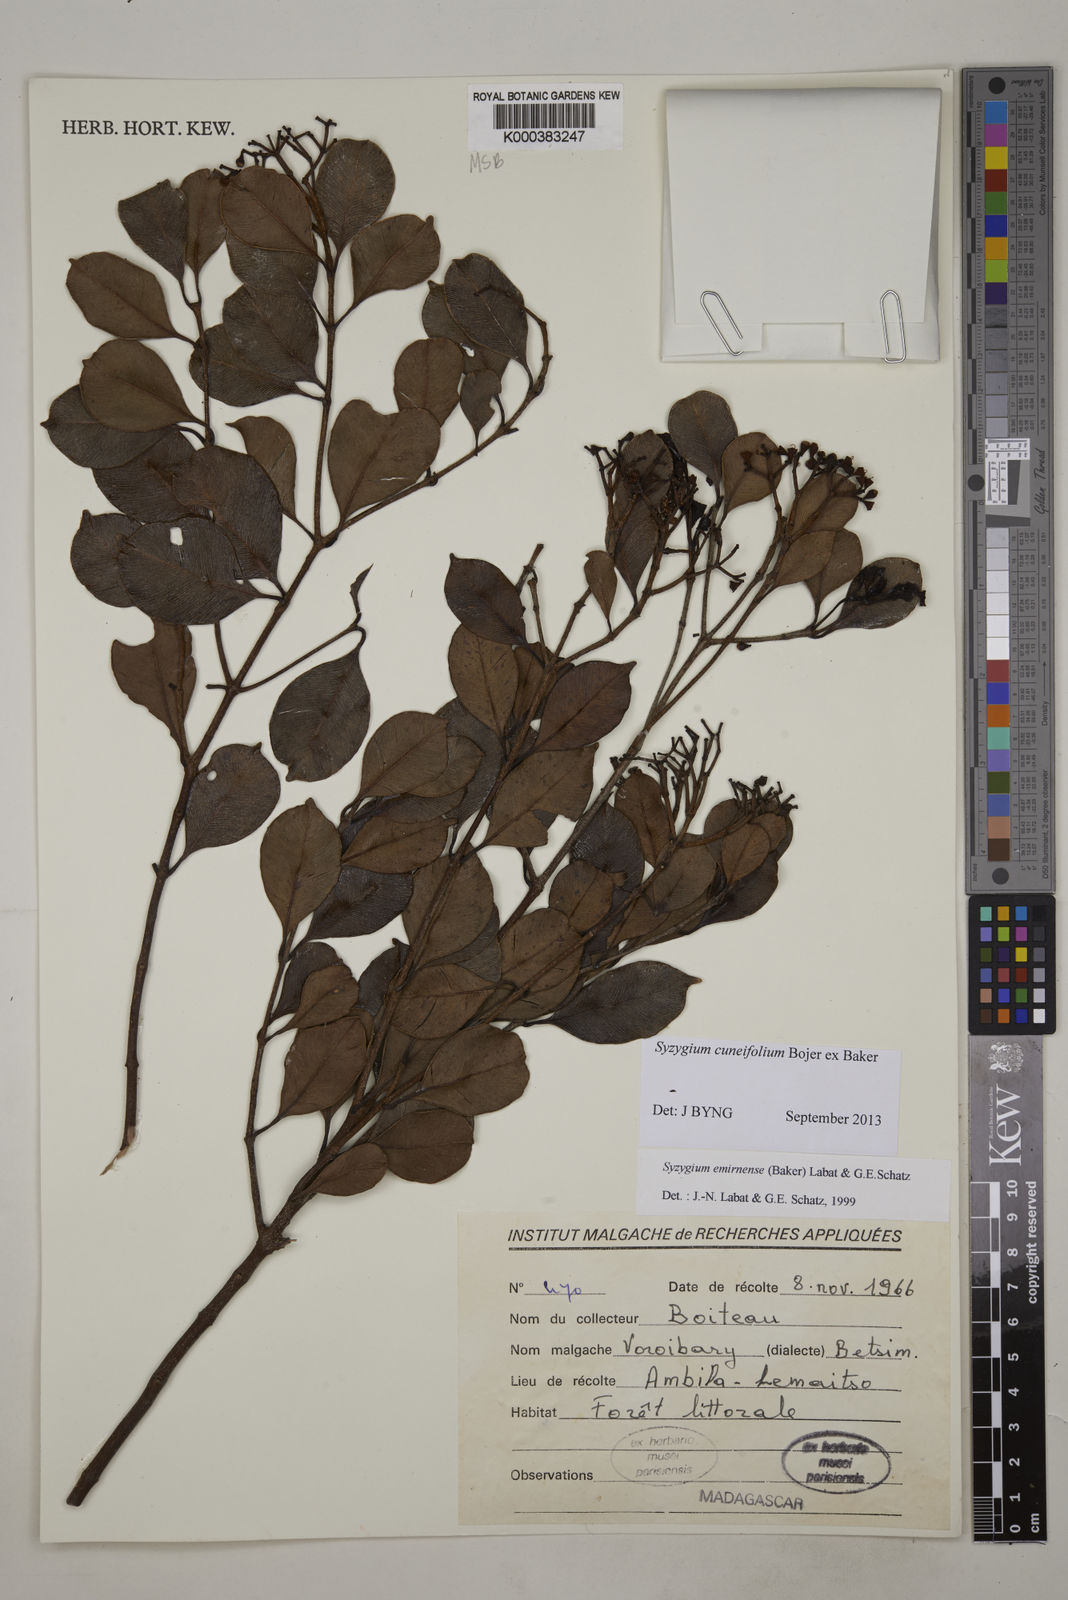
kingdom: Plantae
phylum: Tracheophyta
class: Magnoliopsida
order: Myrtales
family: Myrtaceae
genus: Syzygium
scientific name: Syzygium emirnense
